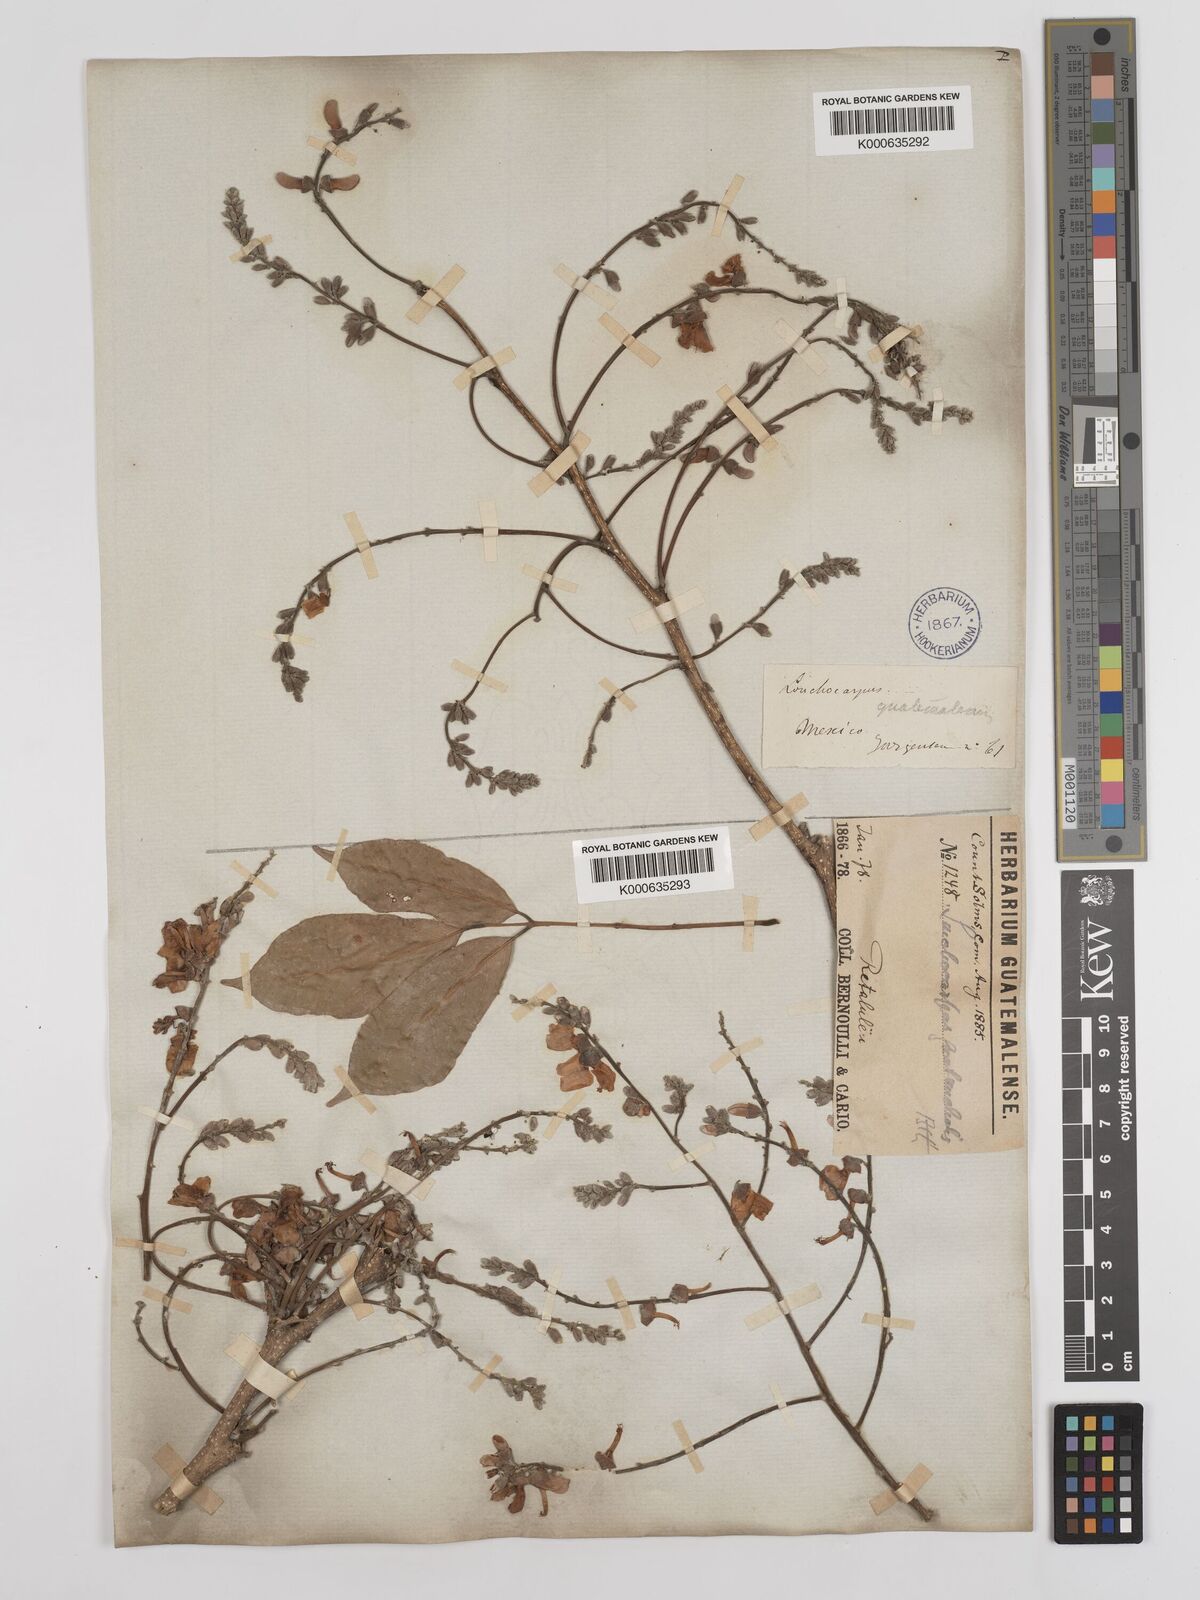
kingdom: Plantae
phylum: Tracheophyta
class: Magnoliopsida
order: Fabales
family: Fabaceae
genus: Lonchocarpus
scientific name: Lonchocarpus guatemalensis
